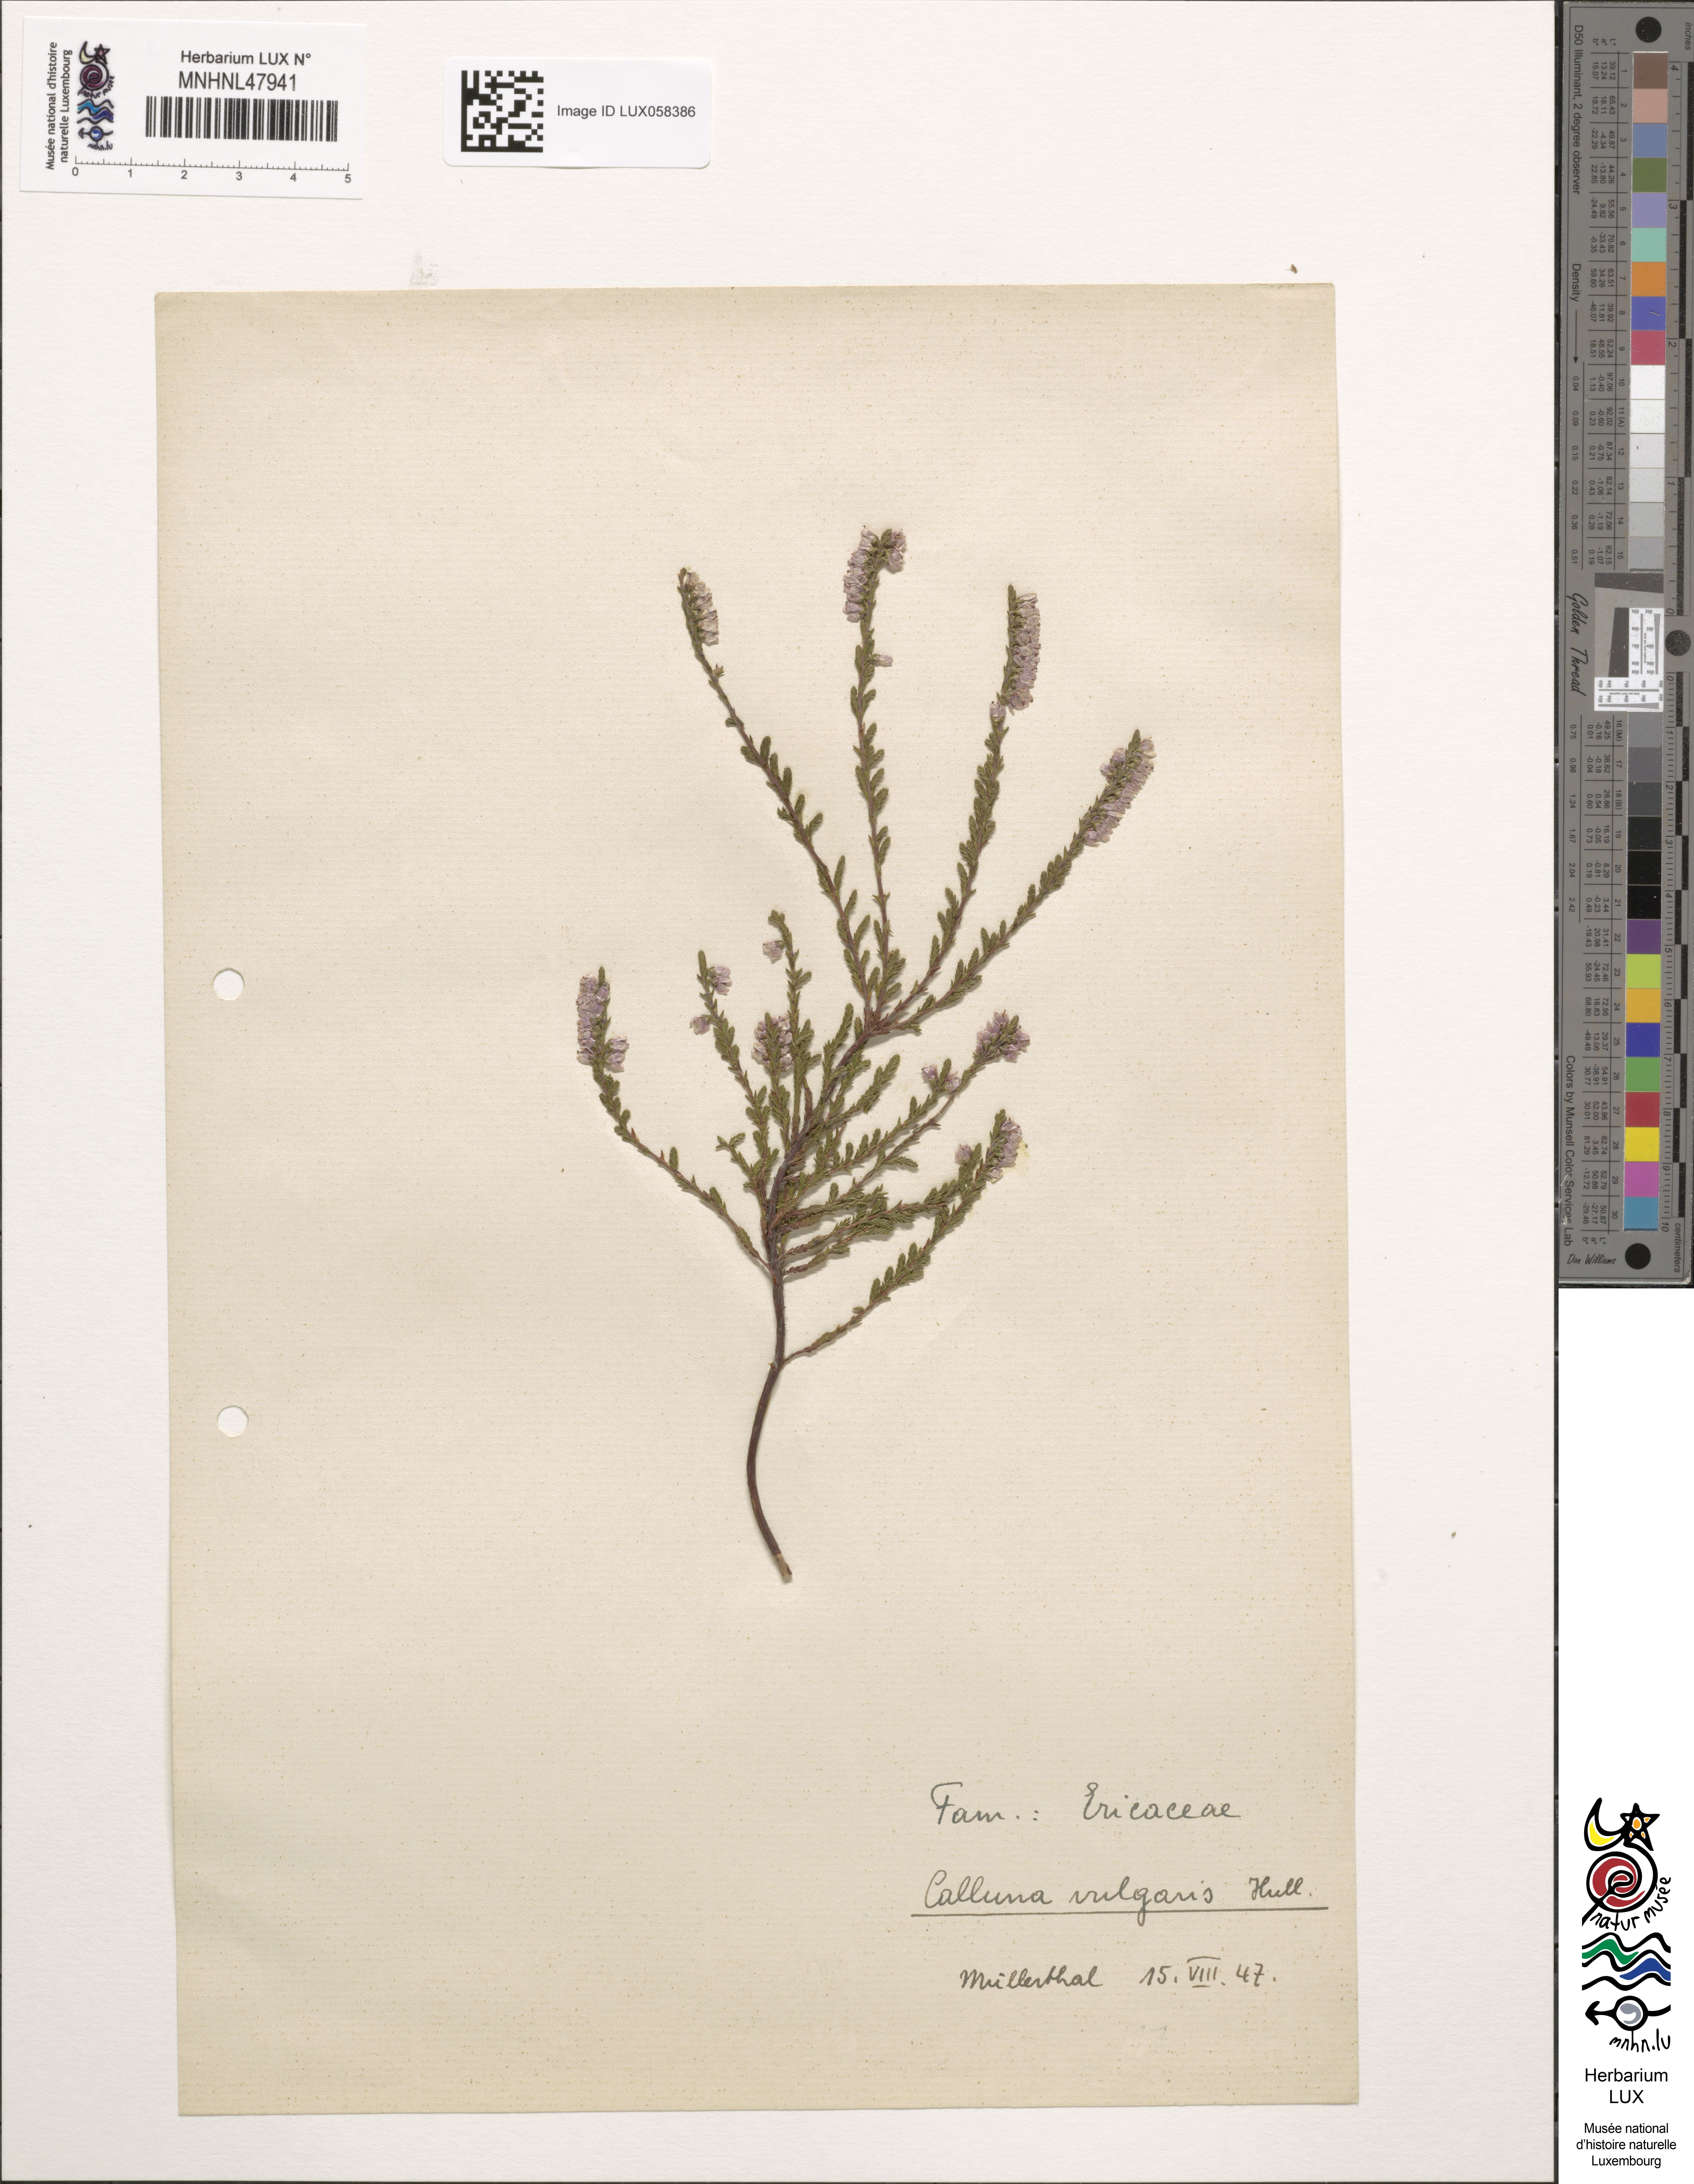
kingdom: Plantae
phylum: Tracheophyta
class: Magnoliopsida
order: Ericales
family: Ericaceae
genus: Calluna
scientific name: Calluna vulgaris
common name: Heather
